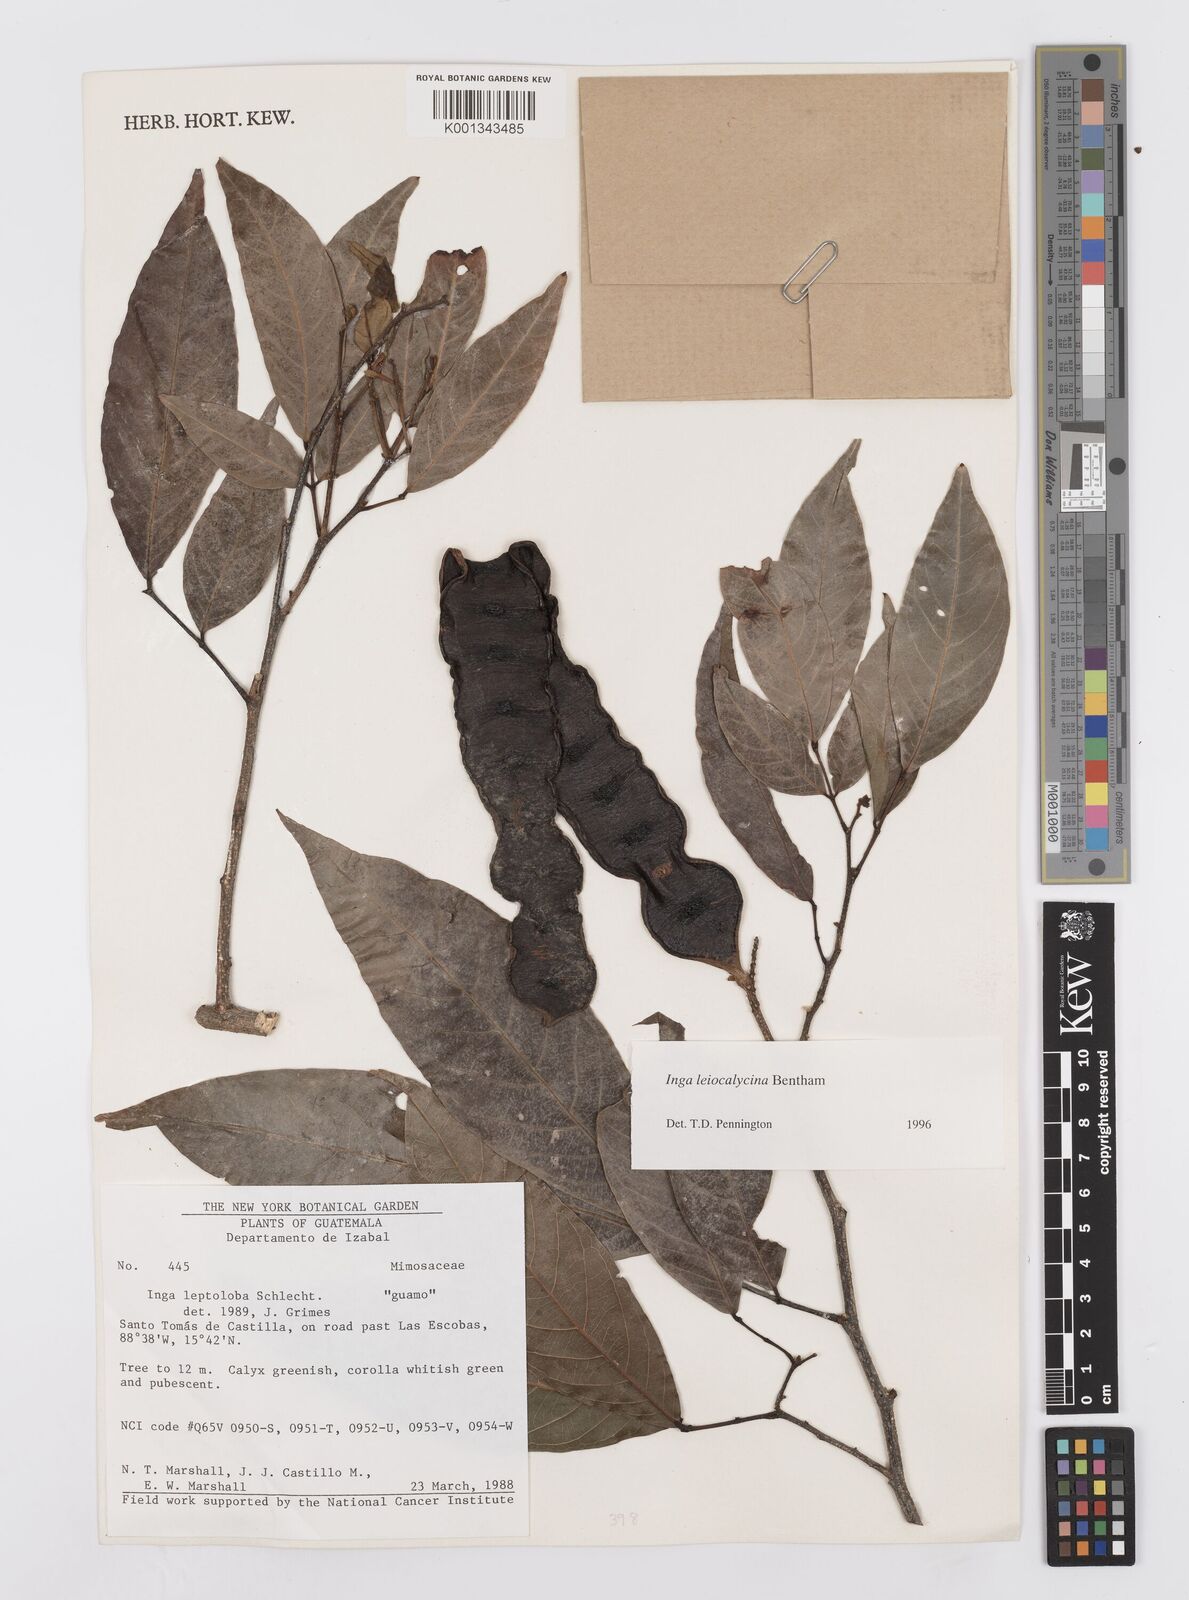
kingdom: Plantae
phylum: Tracheophyta
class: Magnoliopsida
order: Fabales
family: Fabaceae
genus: Inga
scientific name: Inga laevigata
